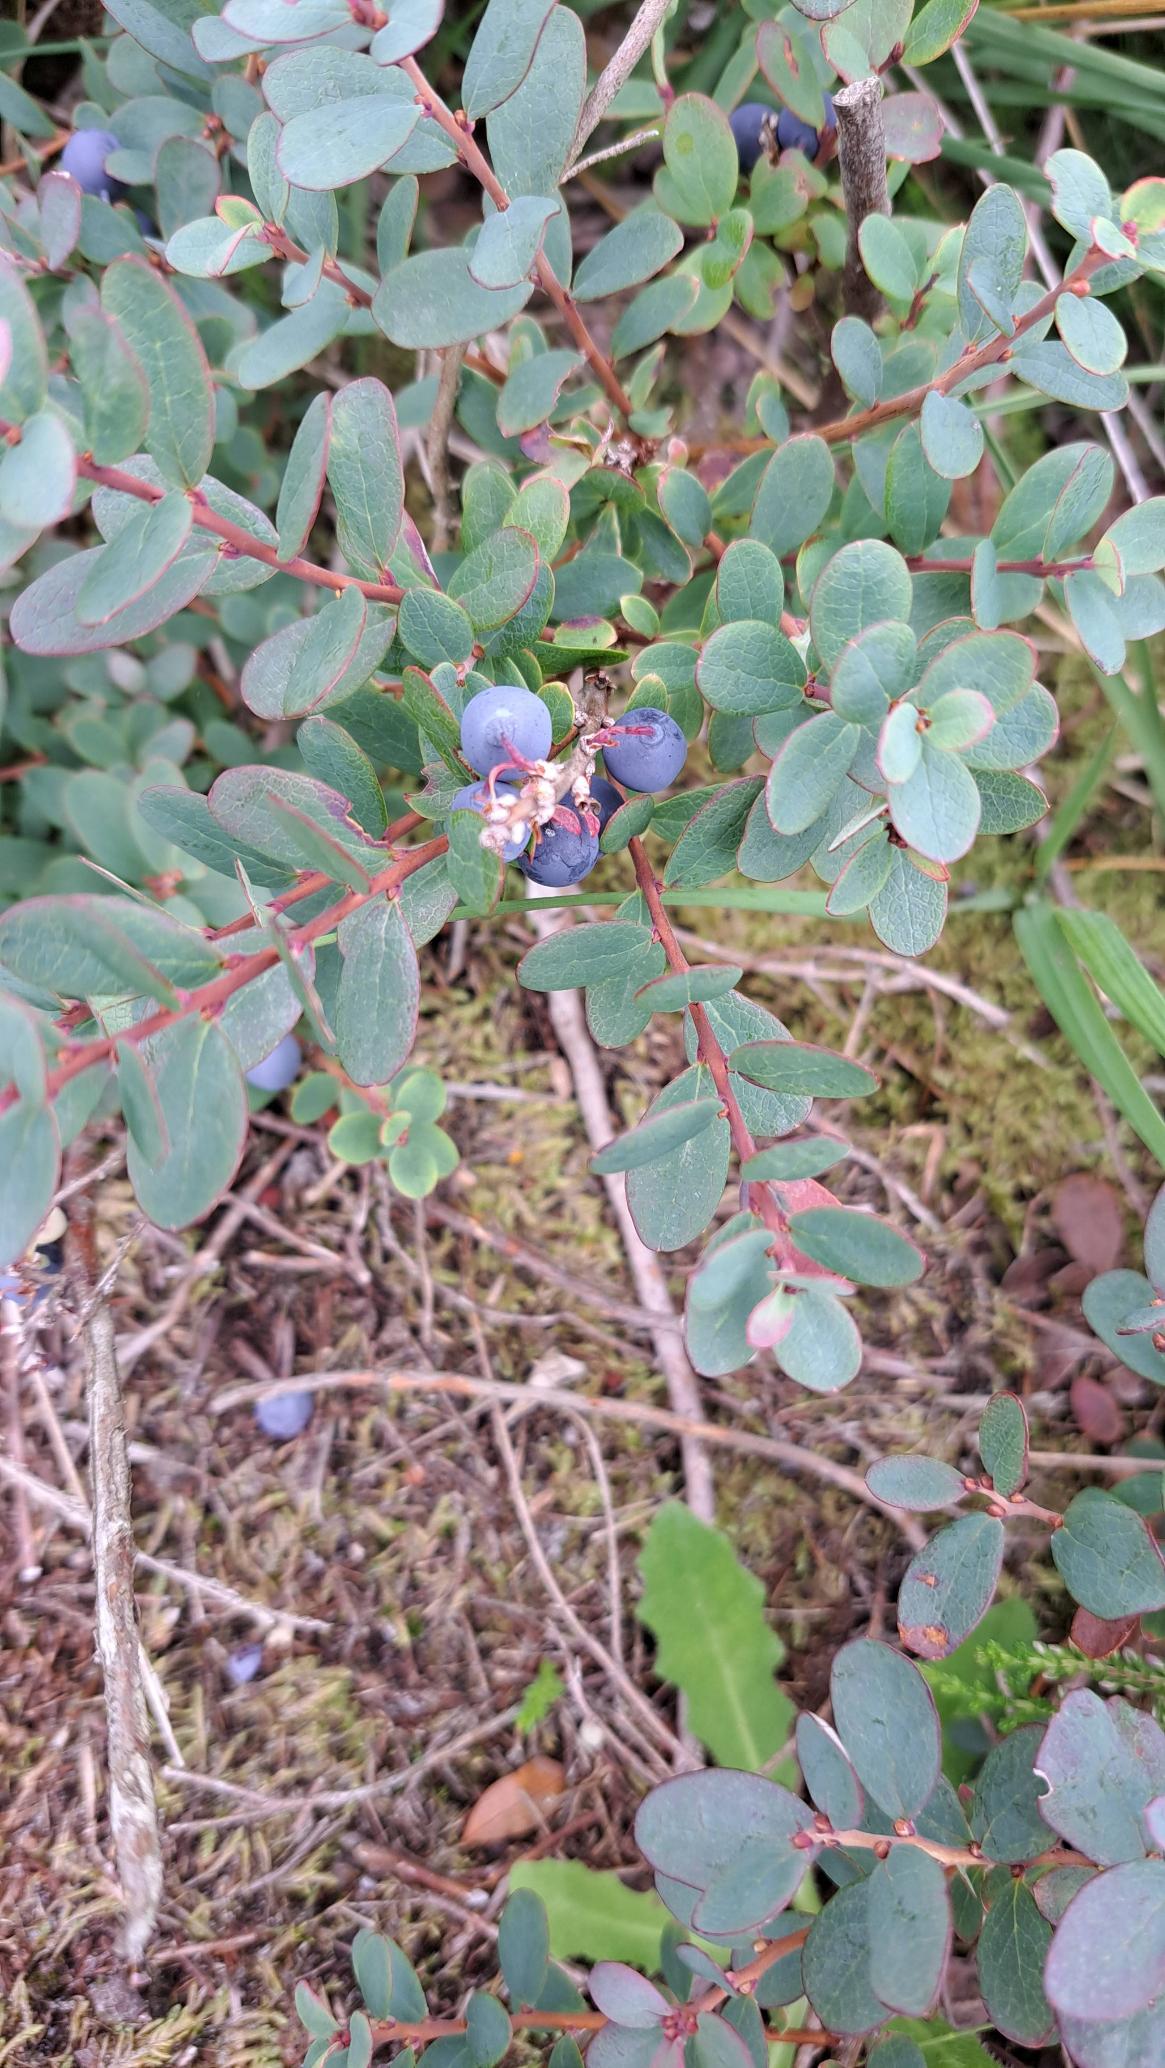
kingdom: Plantae
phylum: Tracheophyta
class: Magnoliopsida
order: Ericales
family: Ericaceae
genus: Vaccinium
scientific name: Vaccinium uliginosum
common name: Mose-bølle
